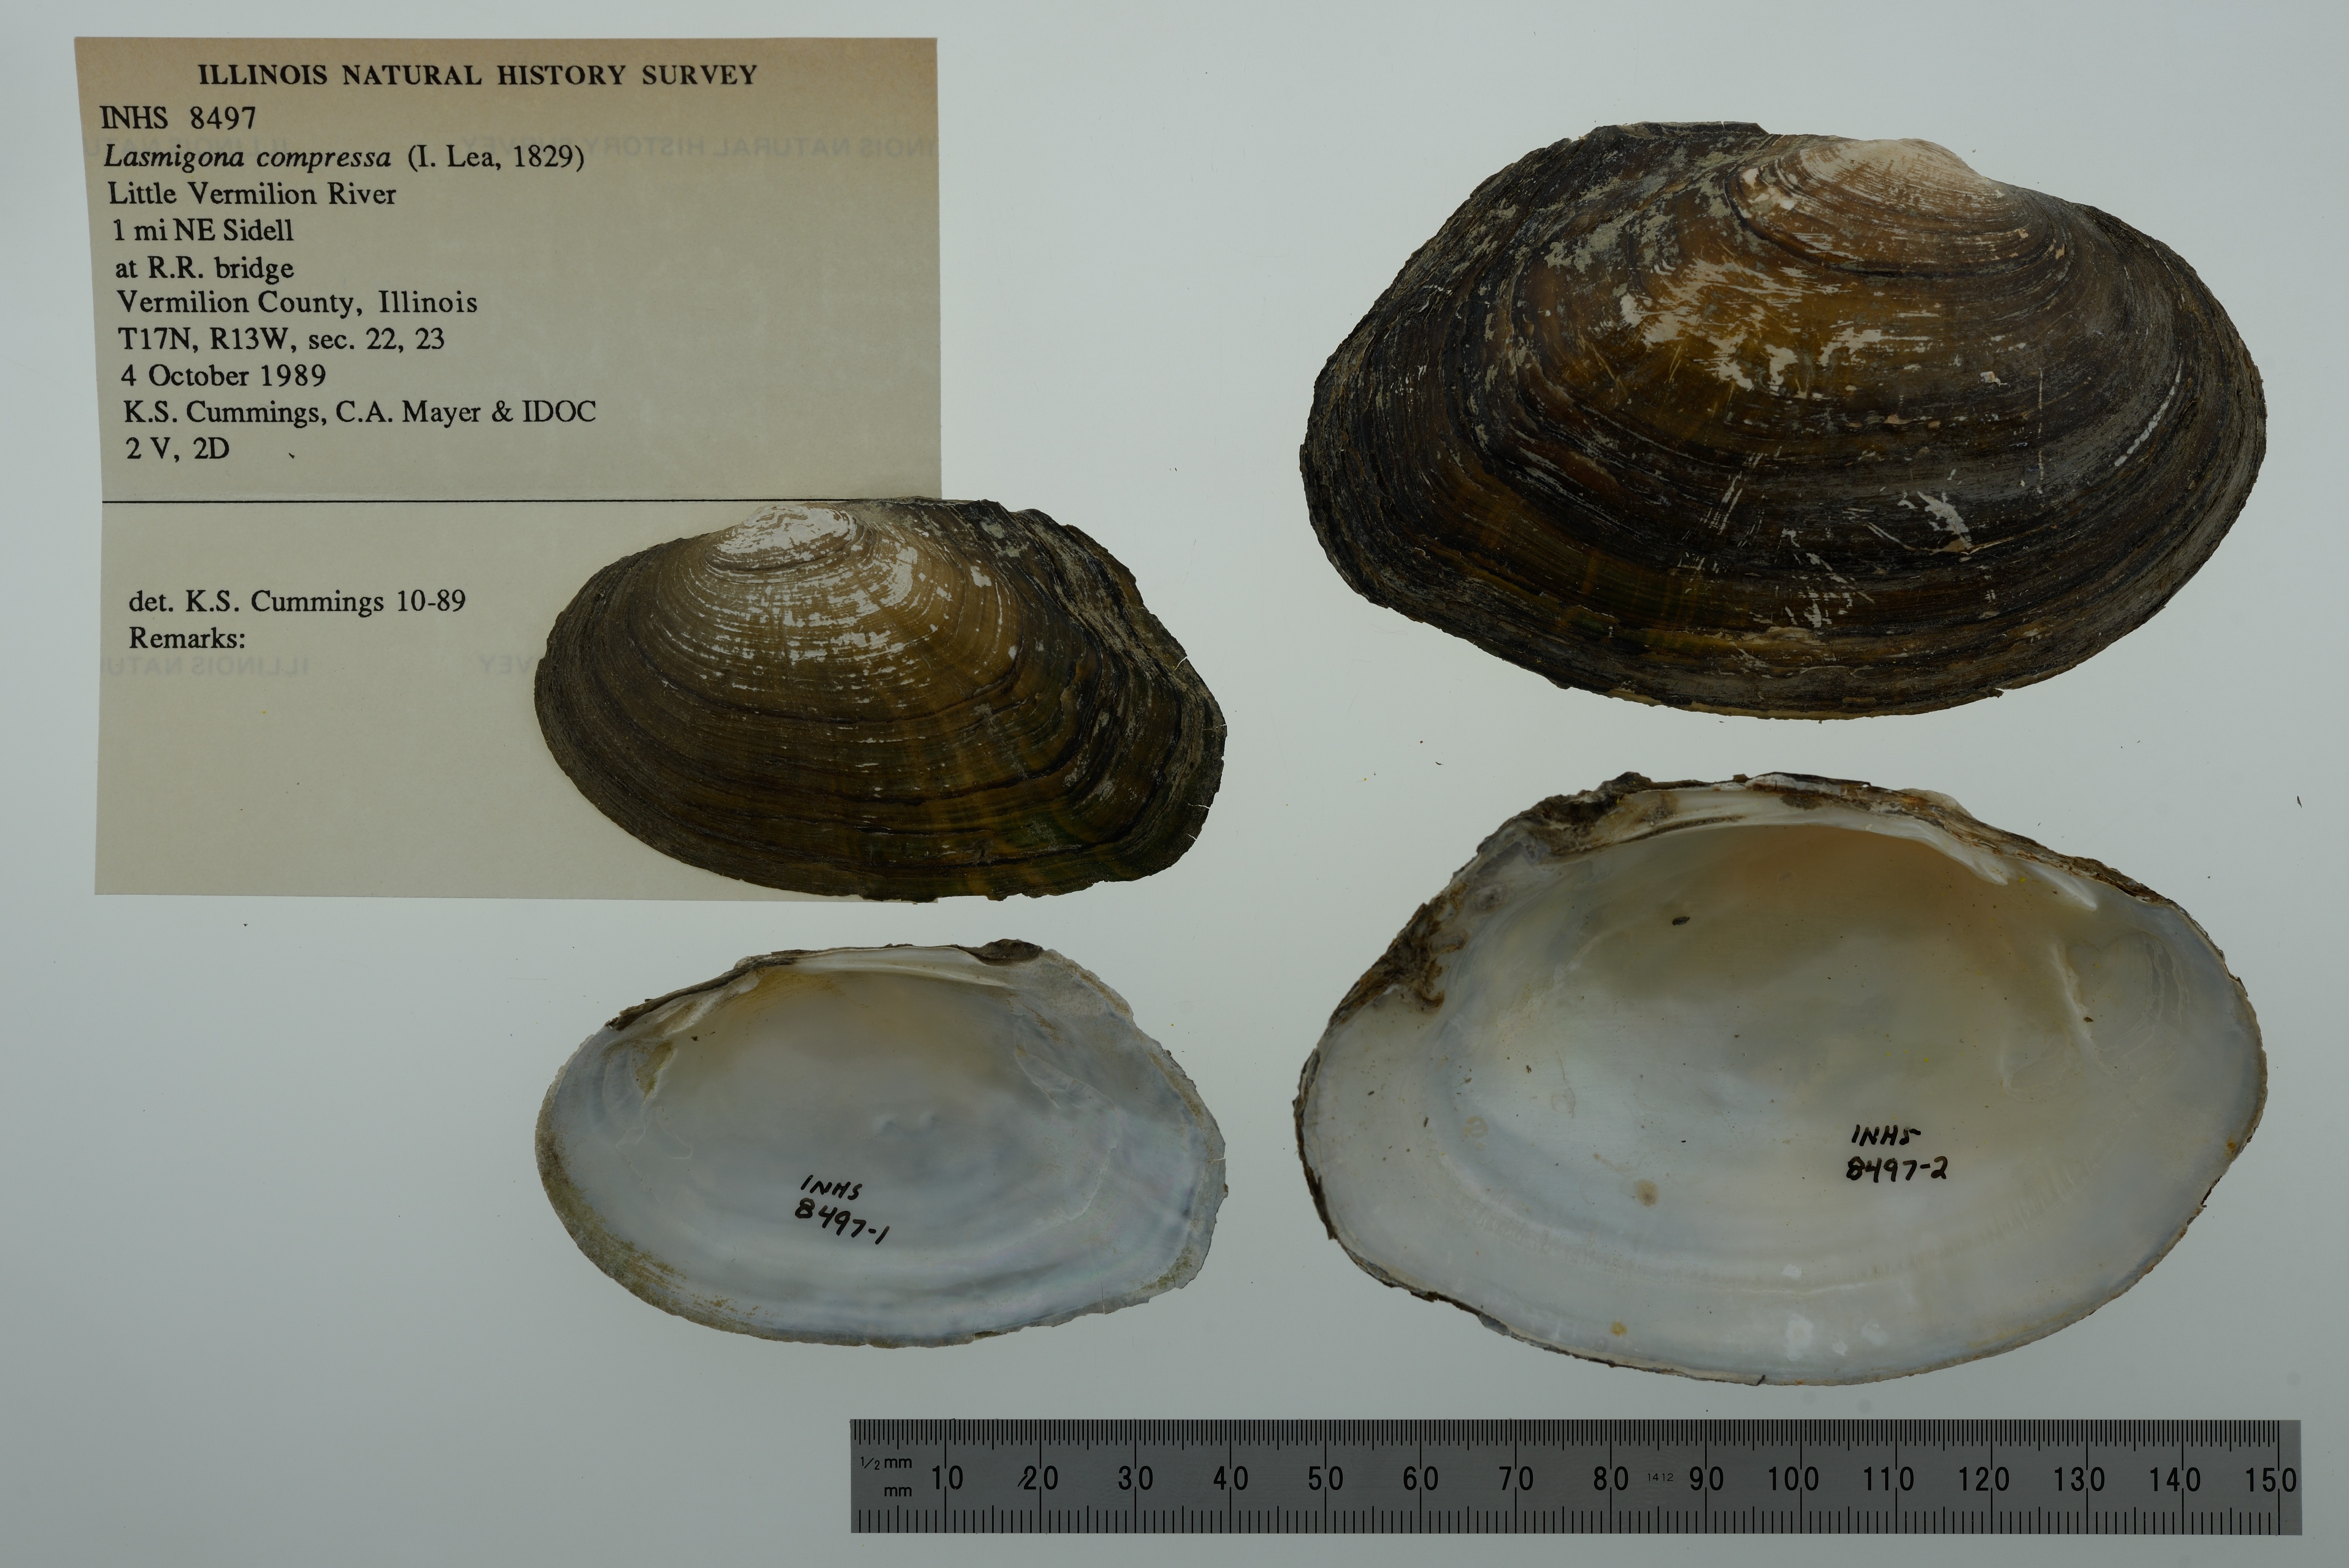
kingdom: Animalia
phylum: Mollusca
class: Bivalvia
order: Unionida
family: Unionidae
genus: Lasmigona
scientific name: Lasmigona compressa
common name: Creek heelsplitter
